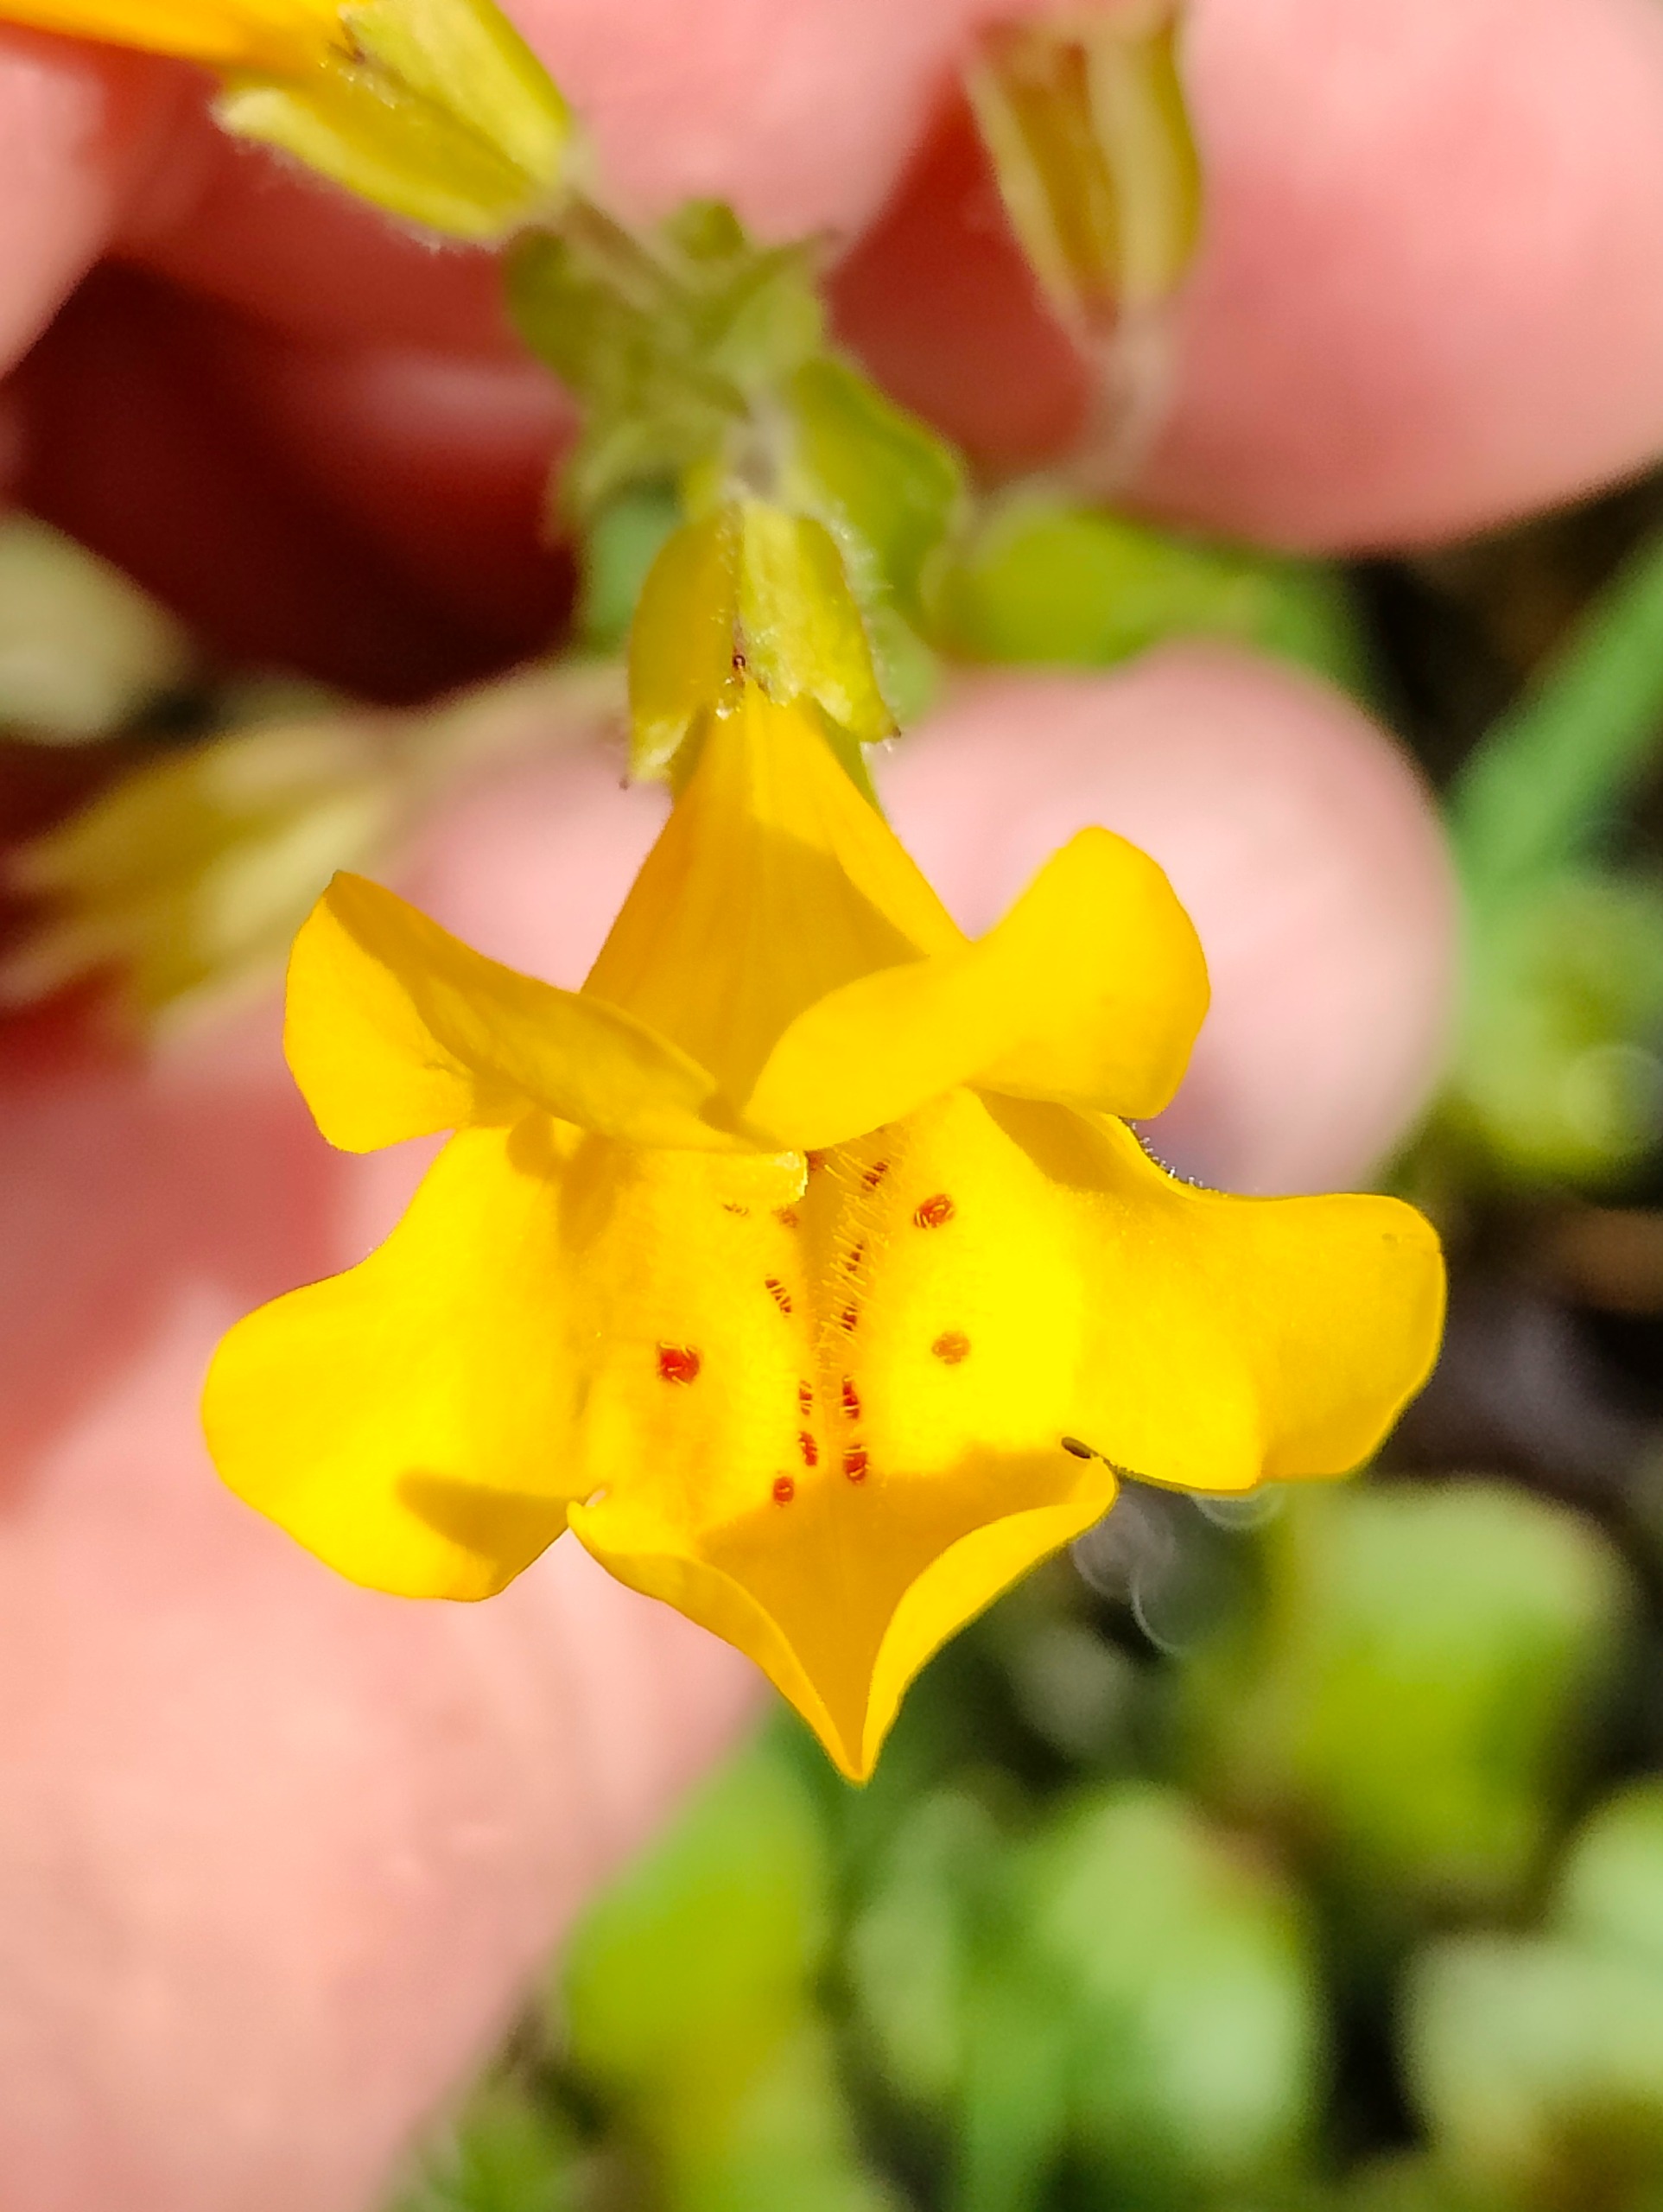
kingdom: Plantae
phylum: Tracheophyta
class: Magnoliopsida
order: Lamiales
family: Phrymaceae
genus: Erythranthe
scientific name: Erythranthe guttata
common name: Abeblomst
